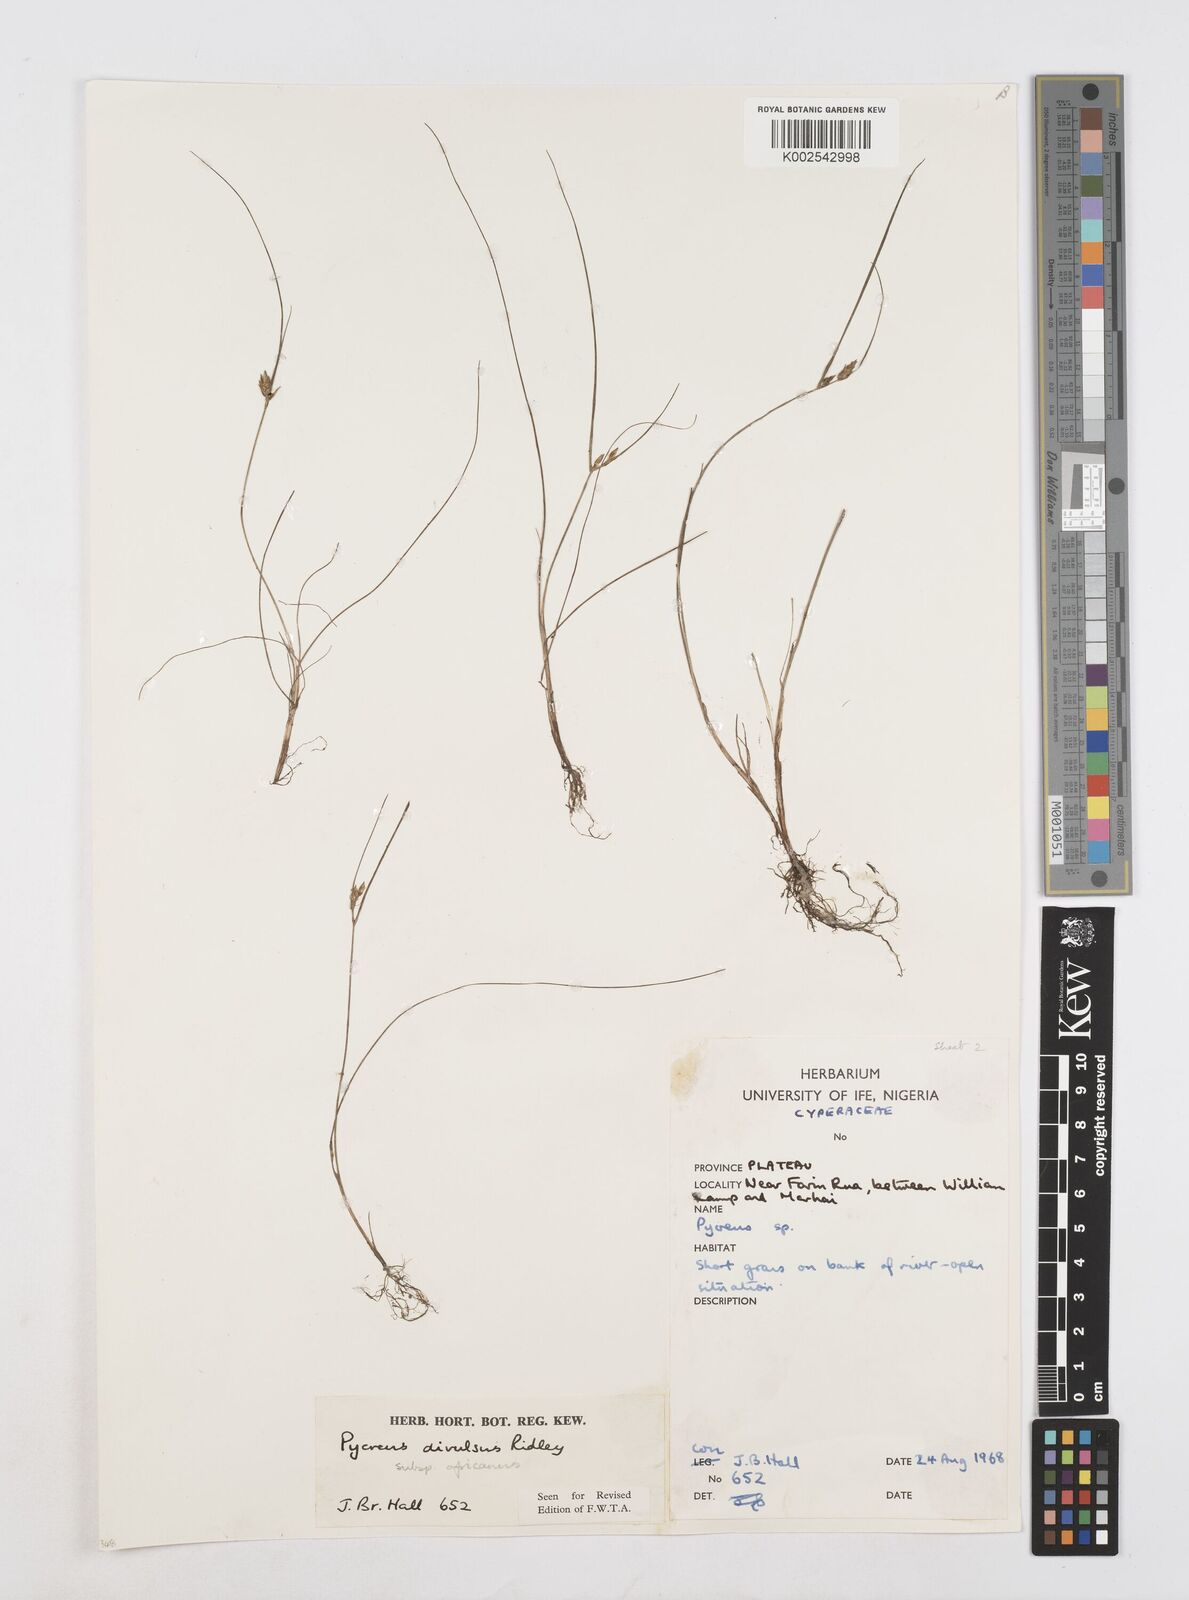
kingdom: Plantae
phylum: Tracheophyta
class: Liliopsida
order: Poales
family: Cyperaceae
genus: Cyperus
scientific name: Cyperus divulsus
